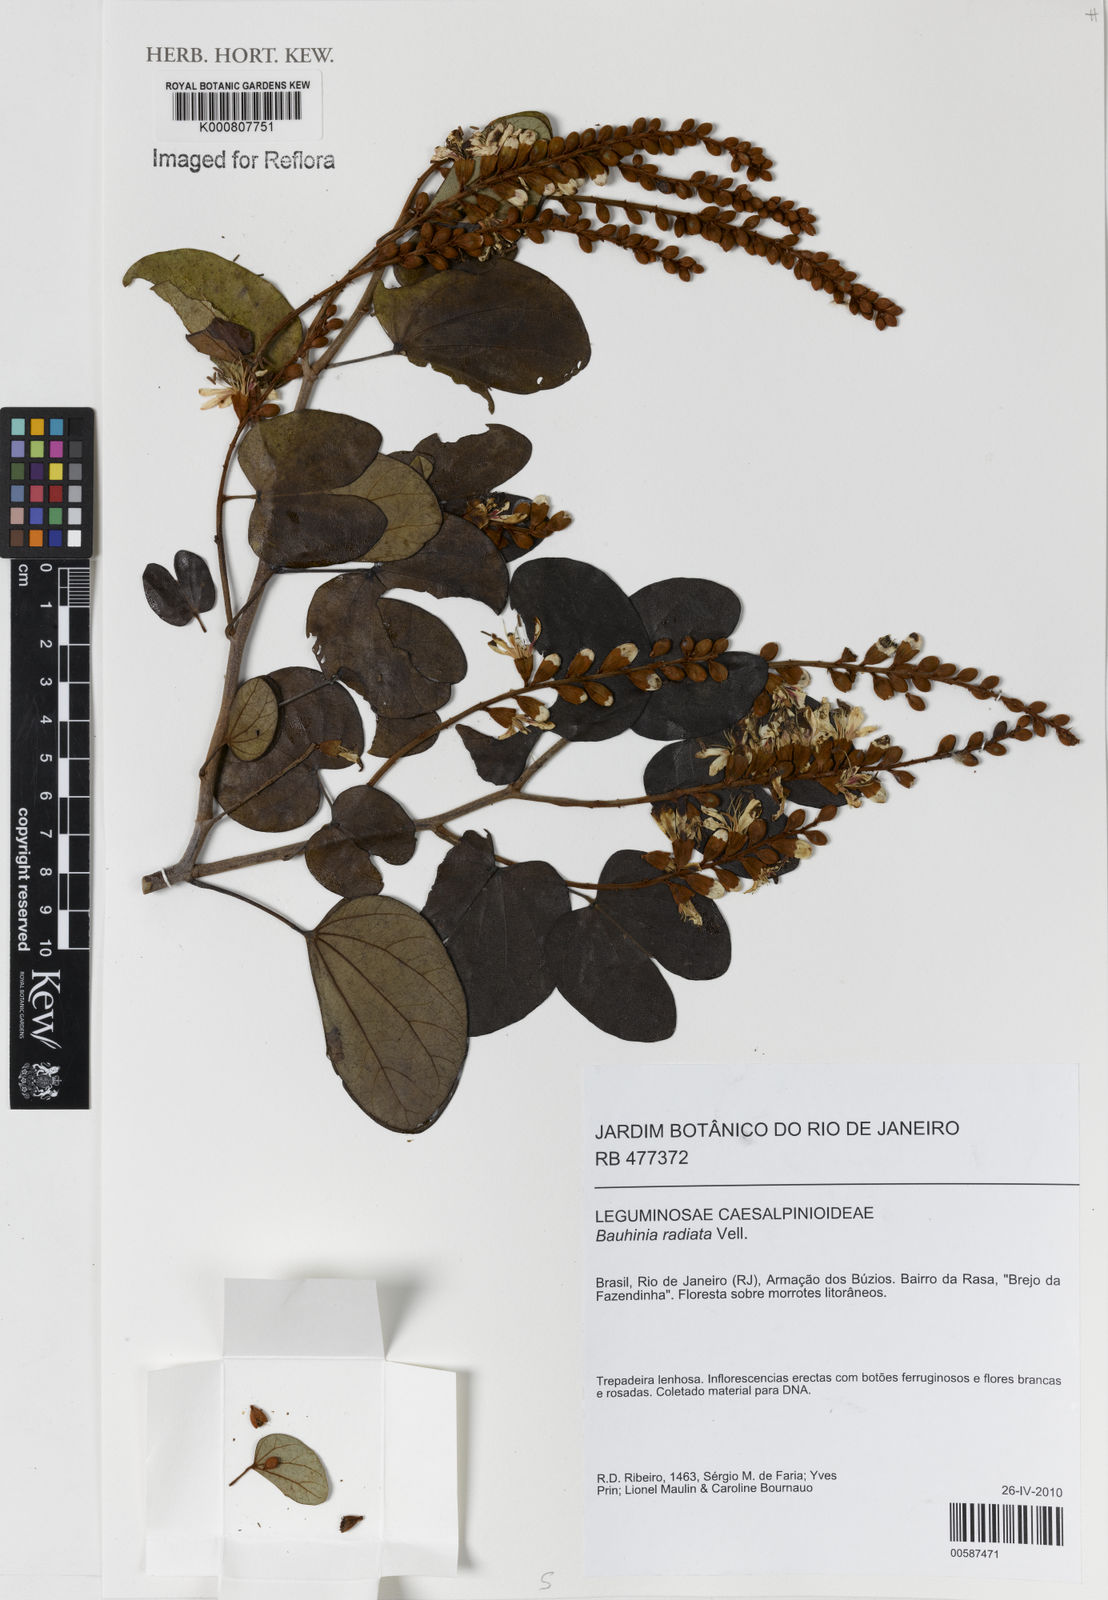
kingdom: Plantae
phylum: Tracheophyta
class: Magnoliopsida
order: Fabales
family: Fabaceae
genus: Schnella
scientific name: Schnella macrostachya
